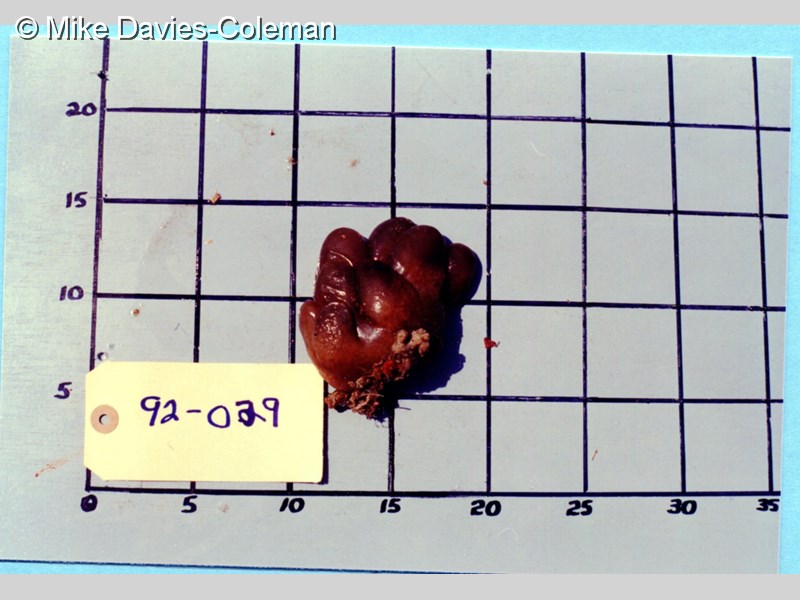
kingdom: Animalia
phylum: Chordata
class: Ascidiacea
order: Aplousobranchia
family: Pseudodistomidae
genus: Pseudodistoma
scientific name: Pseudodistoma
